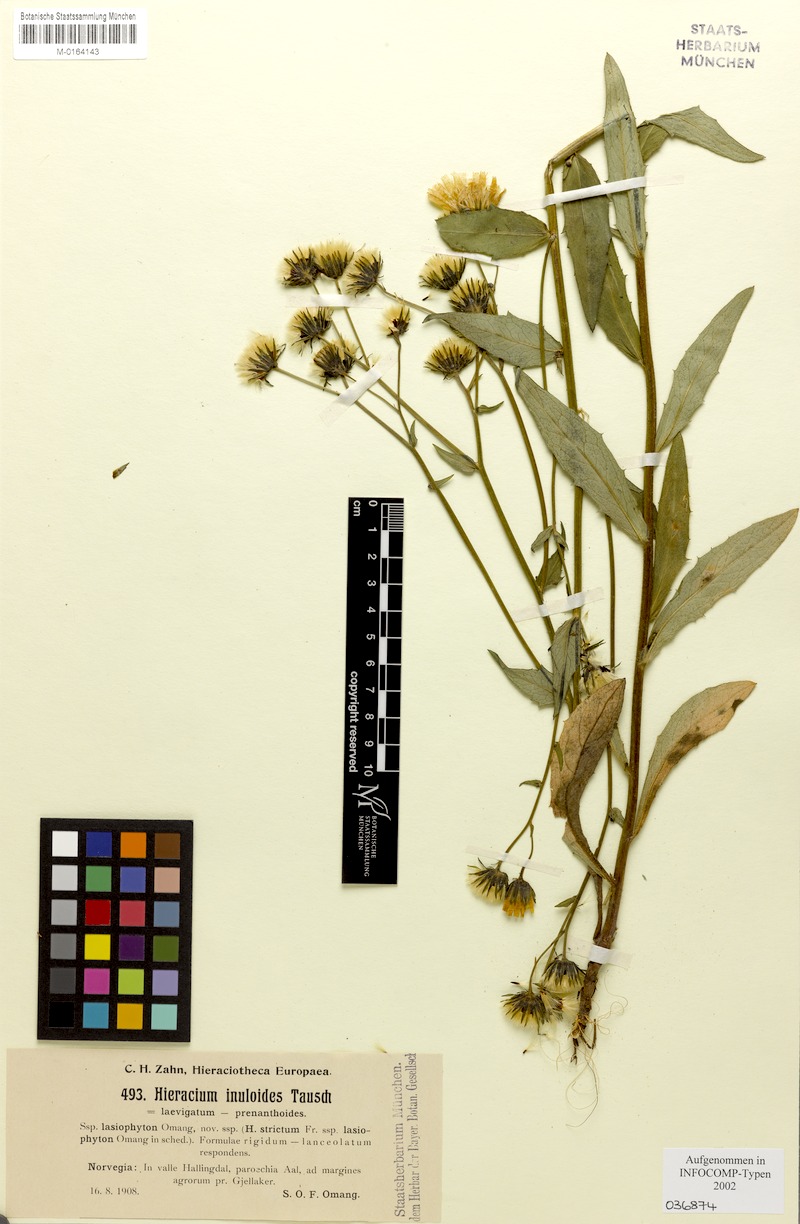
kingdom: Plantae
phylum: Tracheophyta
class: Magnoliopsida
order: Asterales
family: Asteraceae
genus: Hieracium
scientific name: Hieracium inuloides
